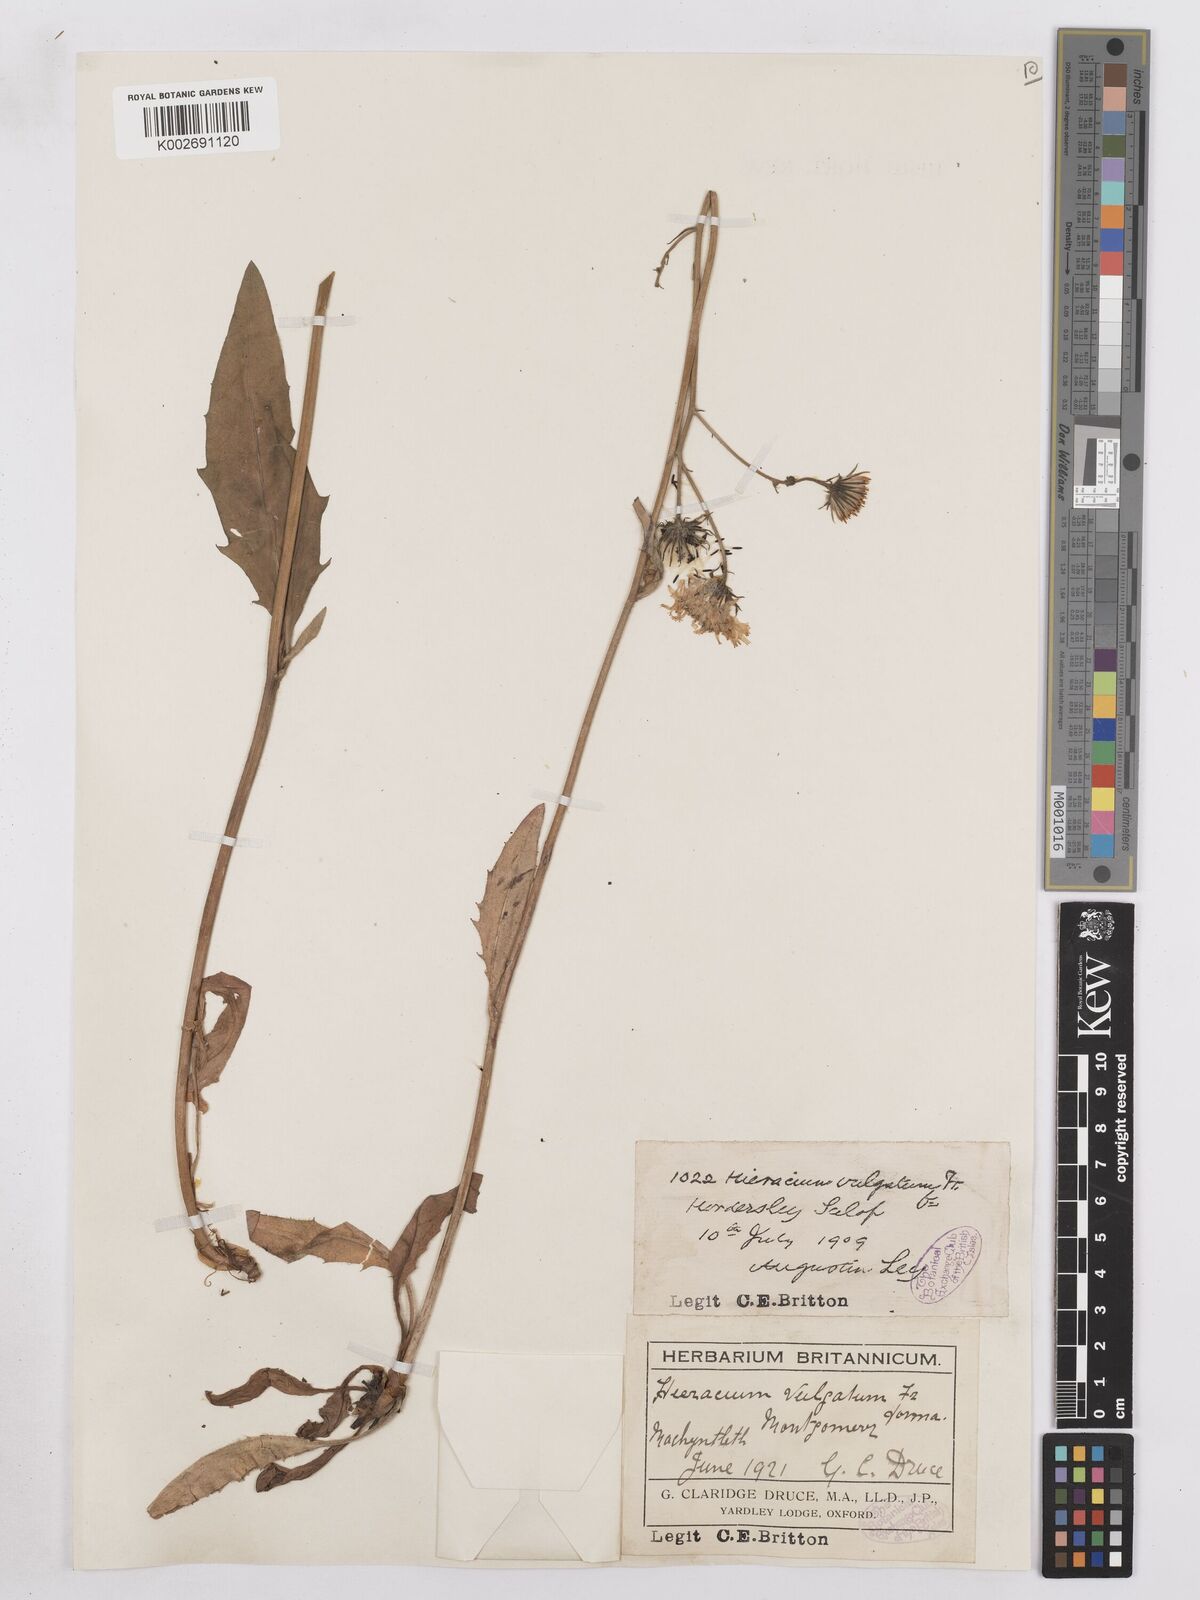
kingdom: Plantae
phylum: Tracheophyta
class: Magnoliopsida
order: Asterales
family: Asteraceae
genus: Hieracium
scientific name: Hieracium lachenalii
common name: Common hawkweed
